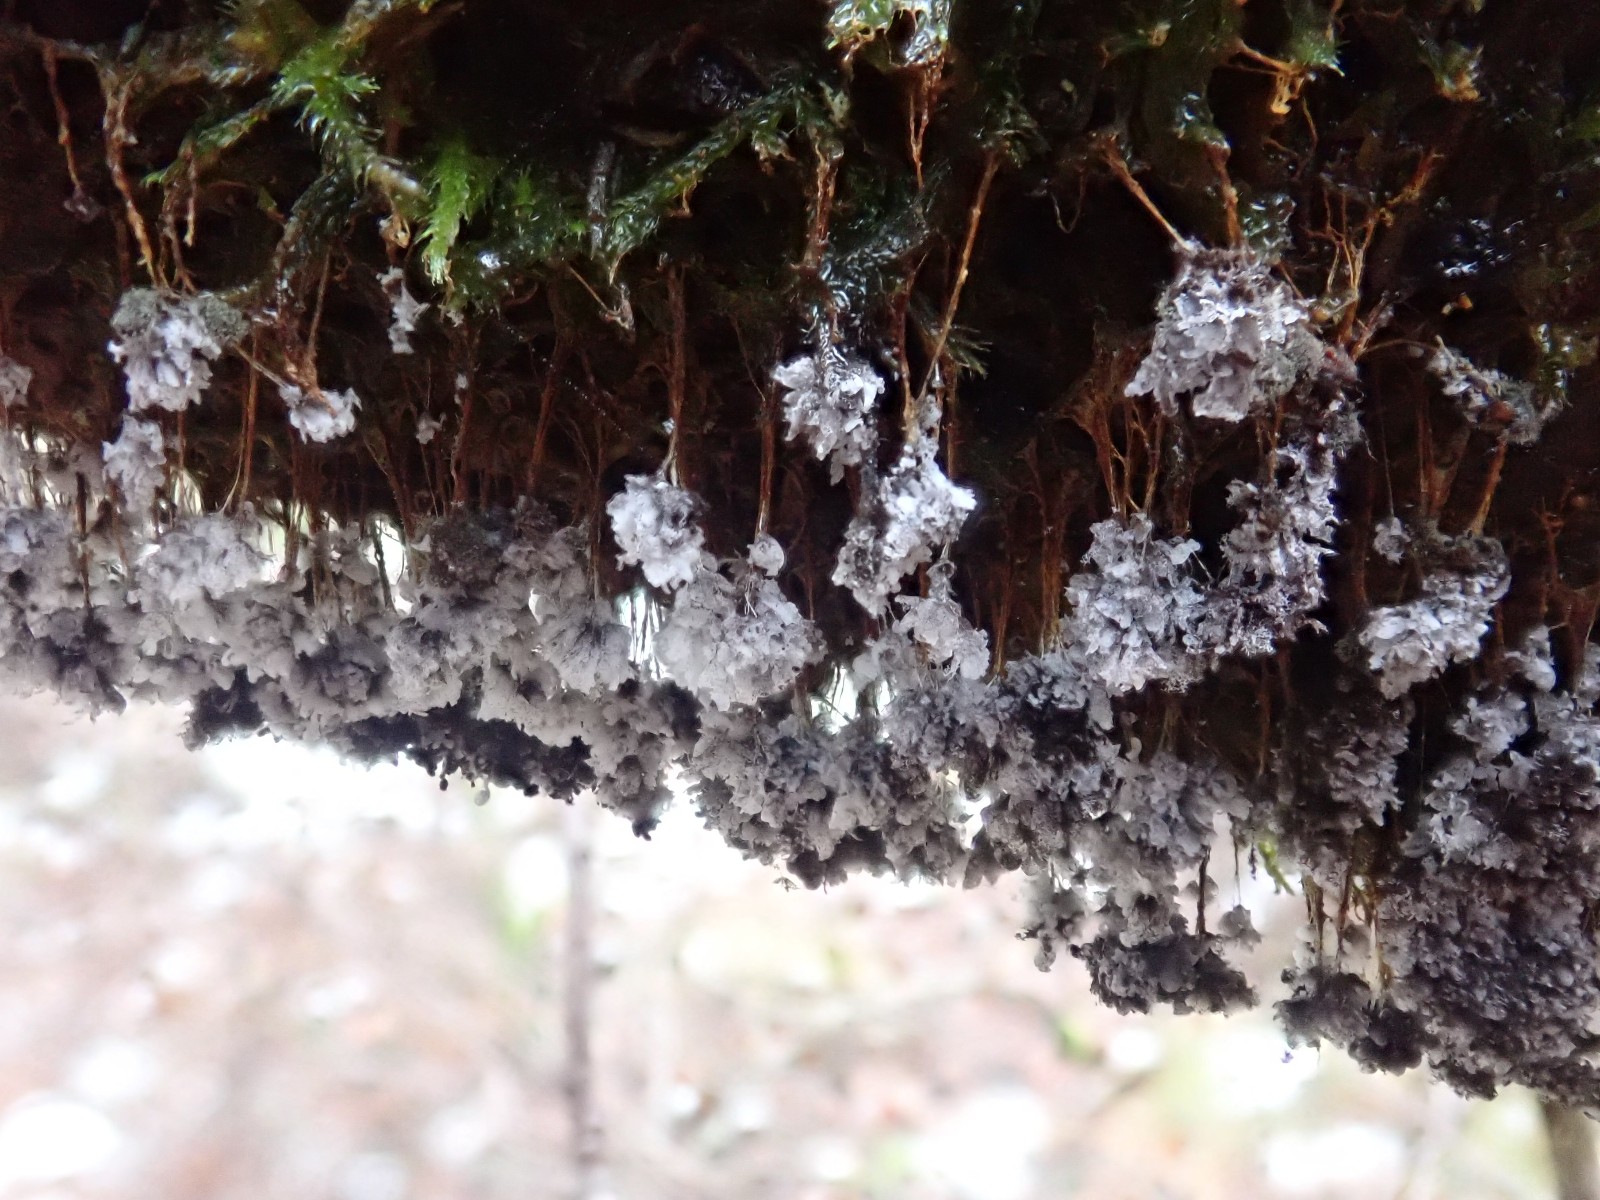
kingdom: Protozoa
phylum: Mycetozoa
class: Myxomycetes
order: Physarales
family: Physaraceae
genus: Badhamia
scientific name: Badhamia utricularis
